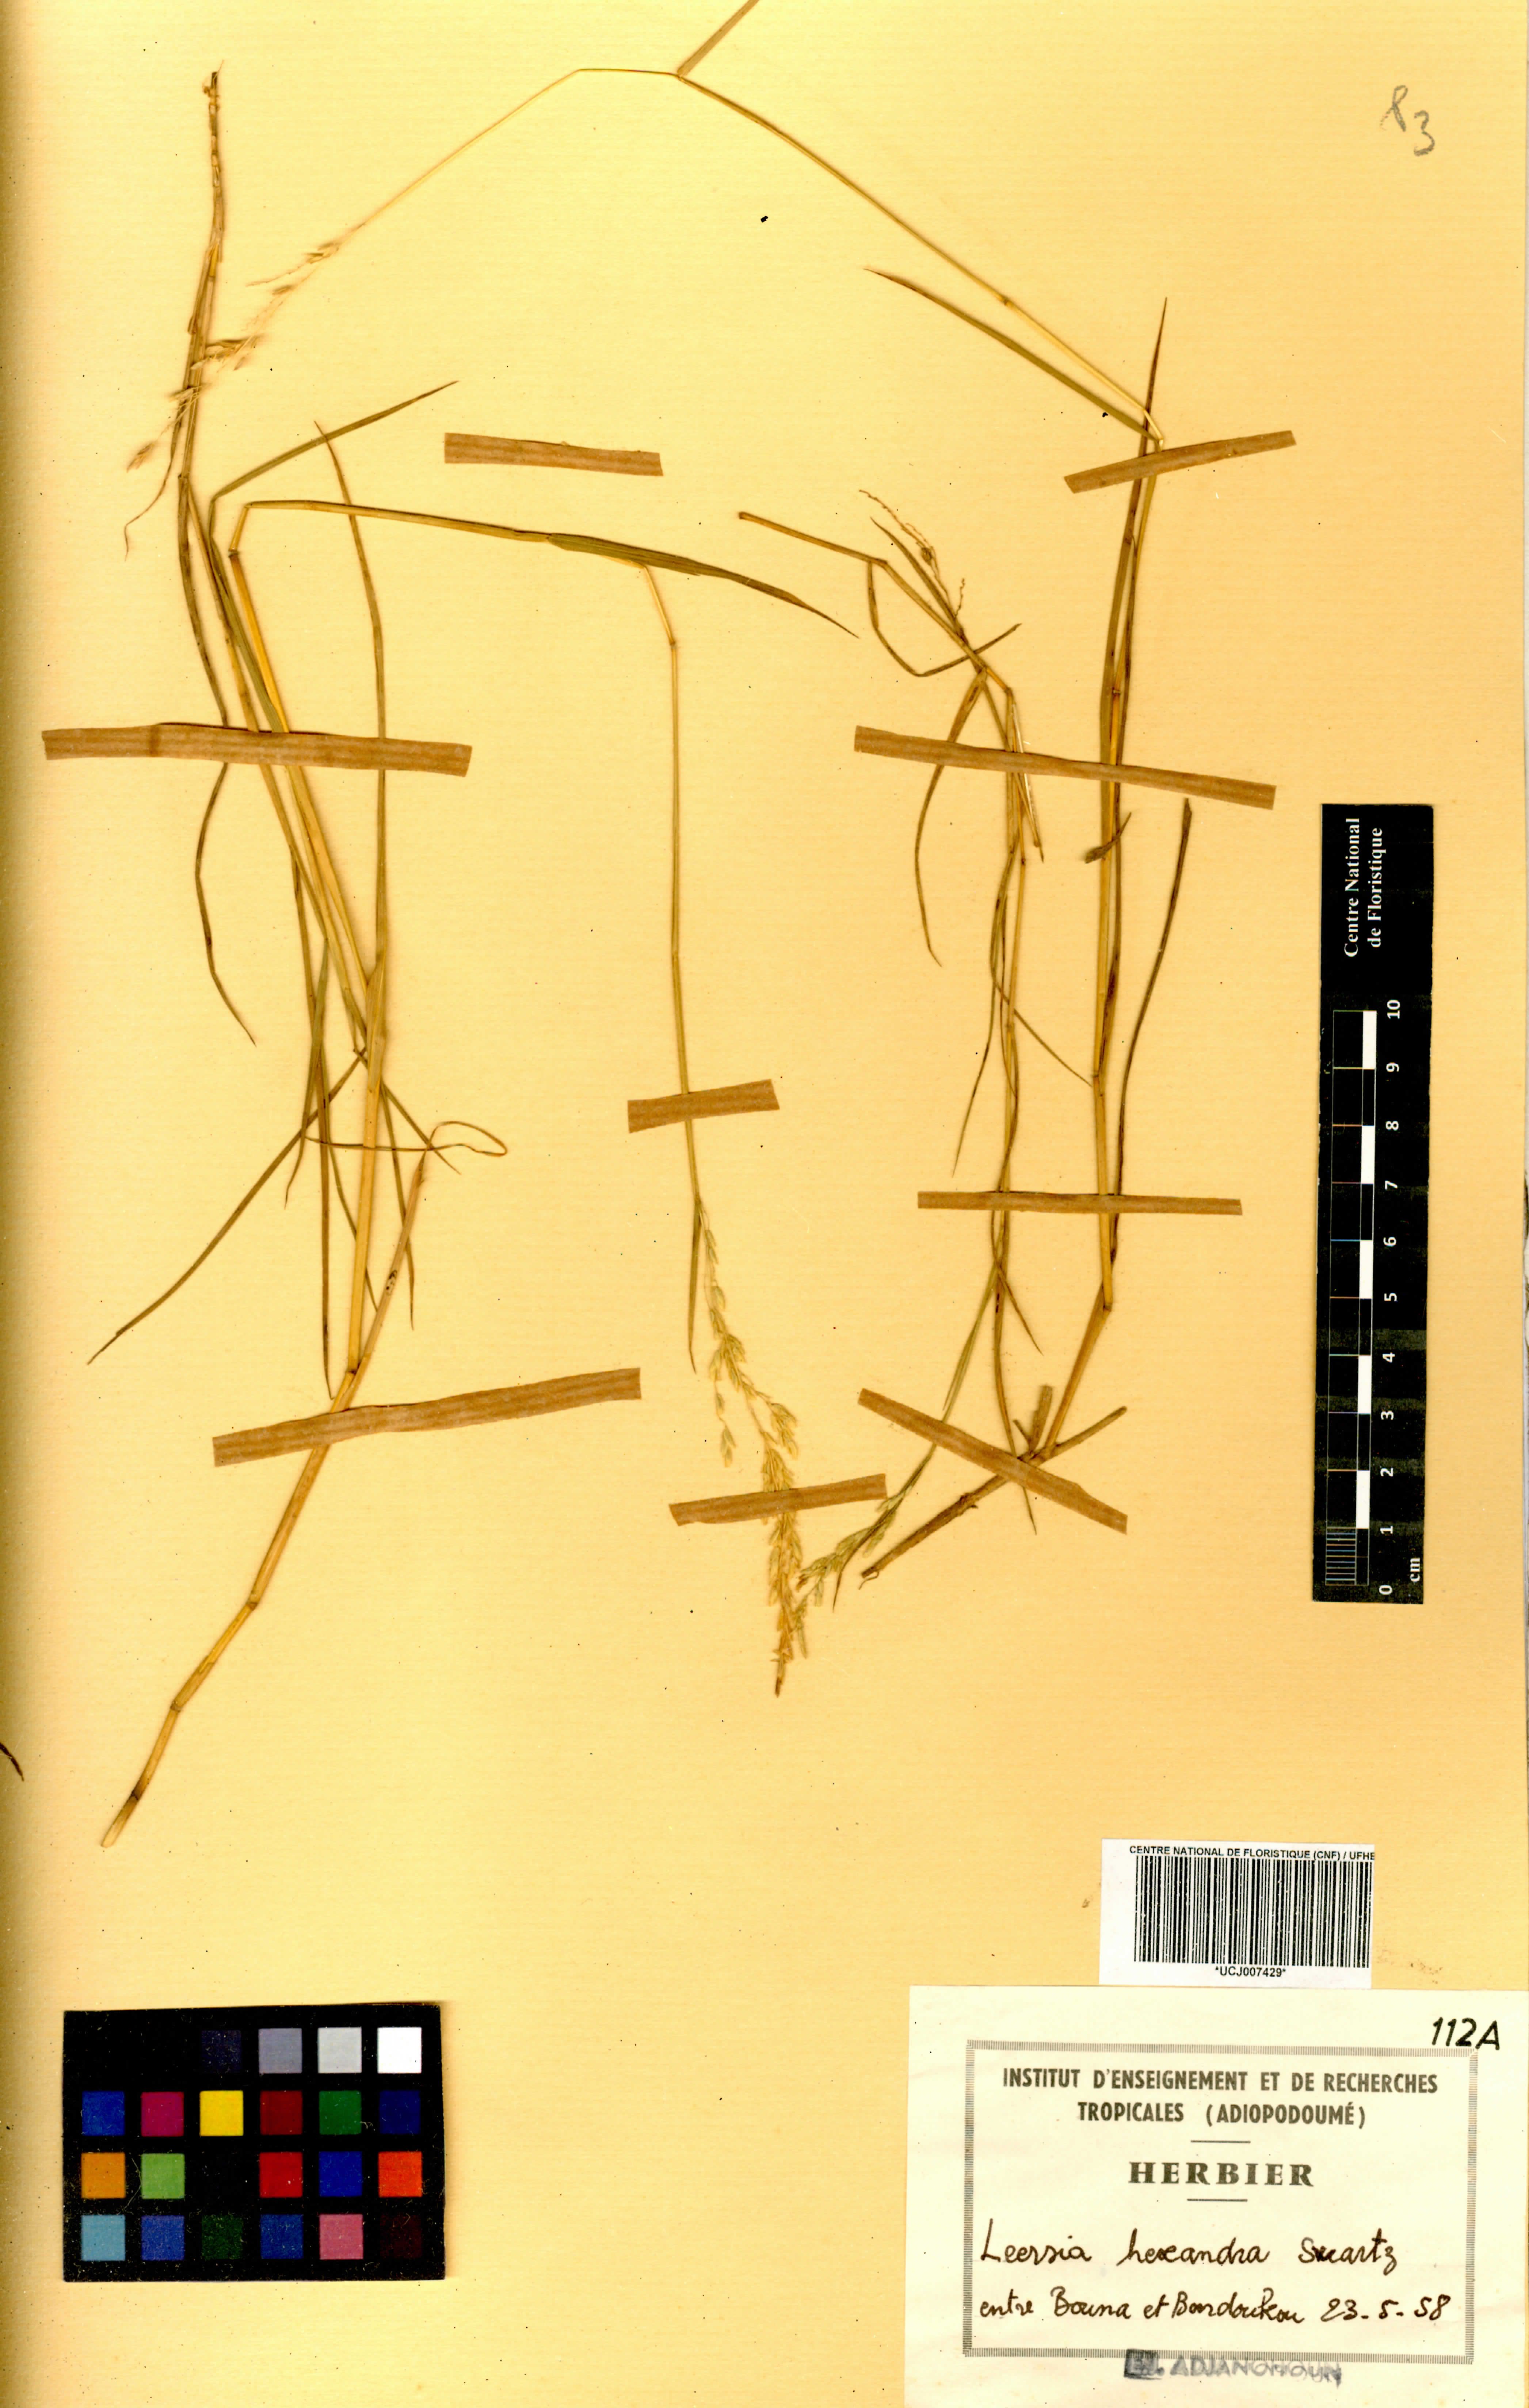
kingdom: Plantae
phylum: Tracheophyta
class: Liliopsida
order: Poales
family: Poaceae
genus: Leersia
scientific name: Leersia hexandra
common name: Southern cut grass
